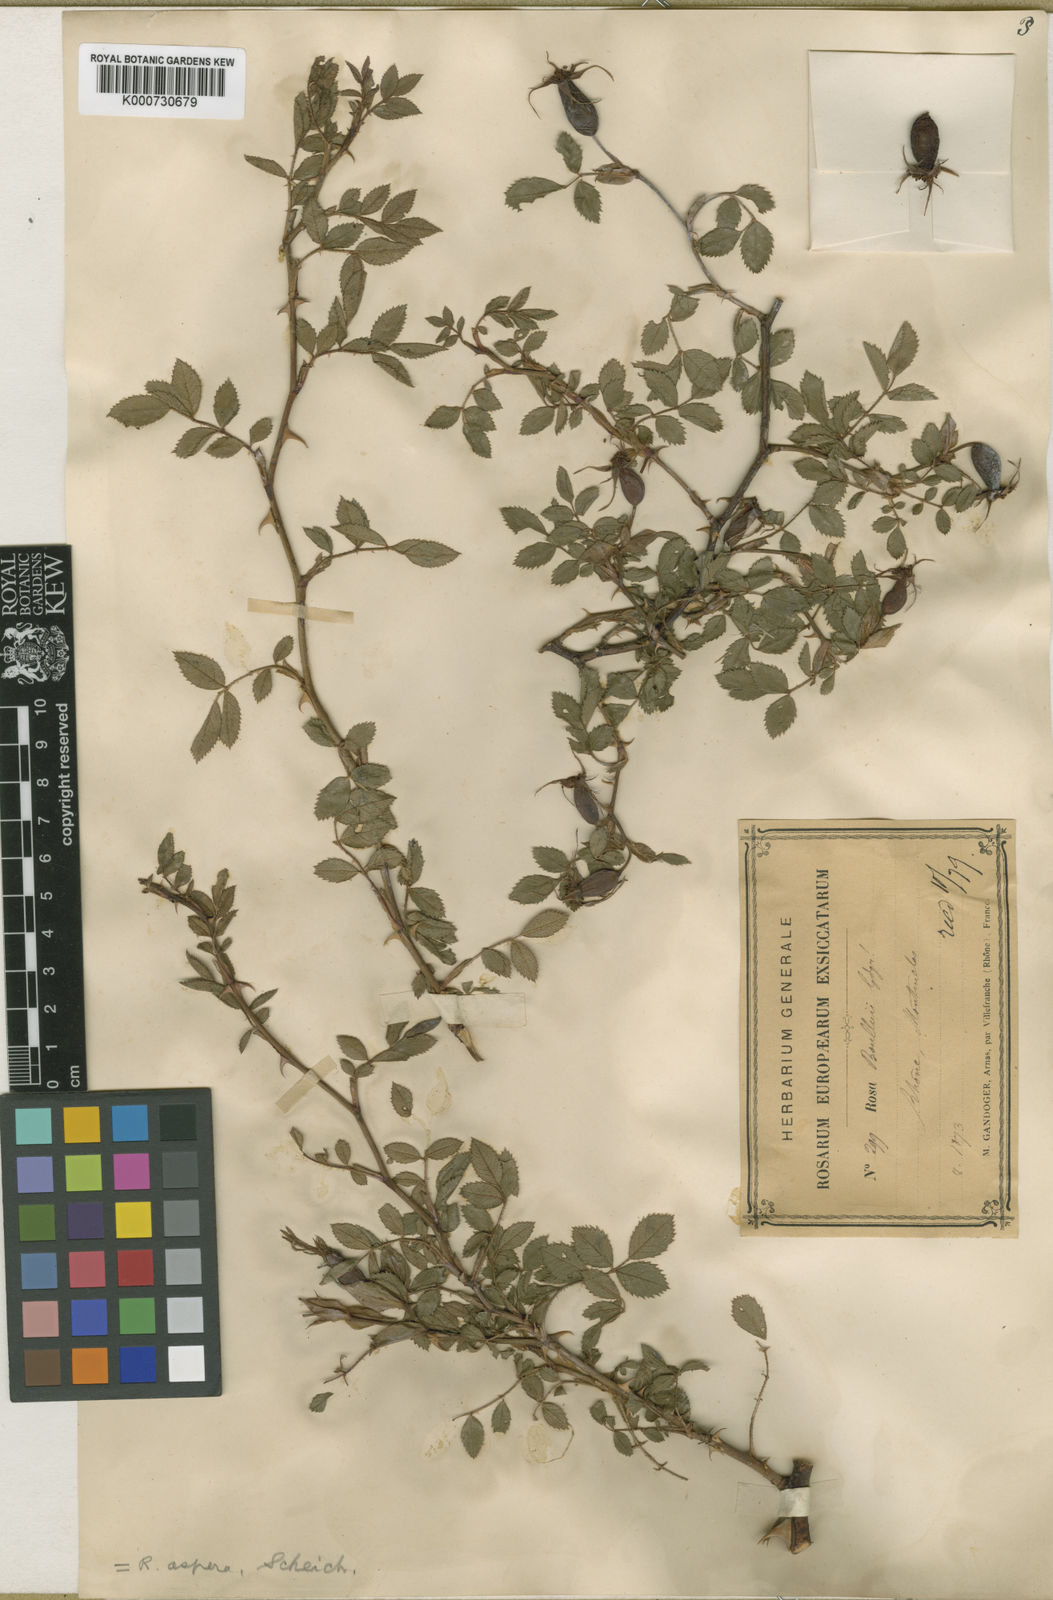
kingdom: Plantae
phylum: Tracheophyta
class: Magnoliopsida
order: Rosales
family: Rosaceae
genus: Rosa
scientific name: Rosa agrestis
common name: Fieldbriar
